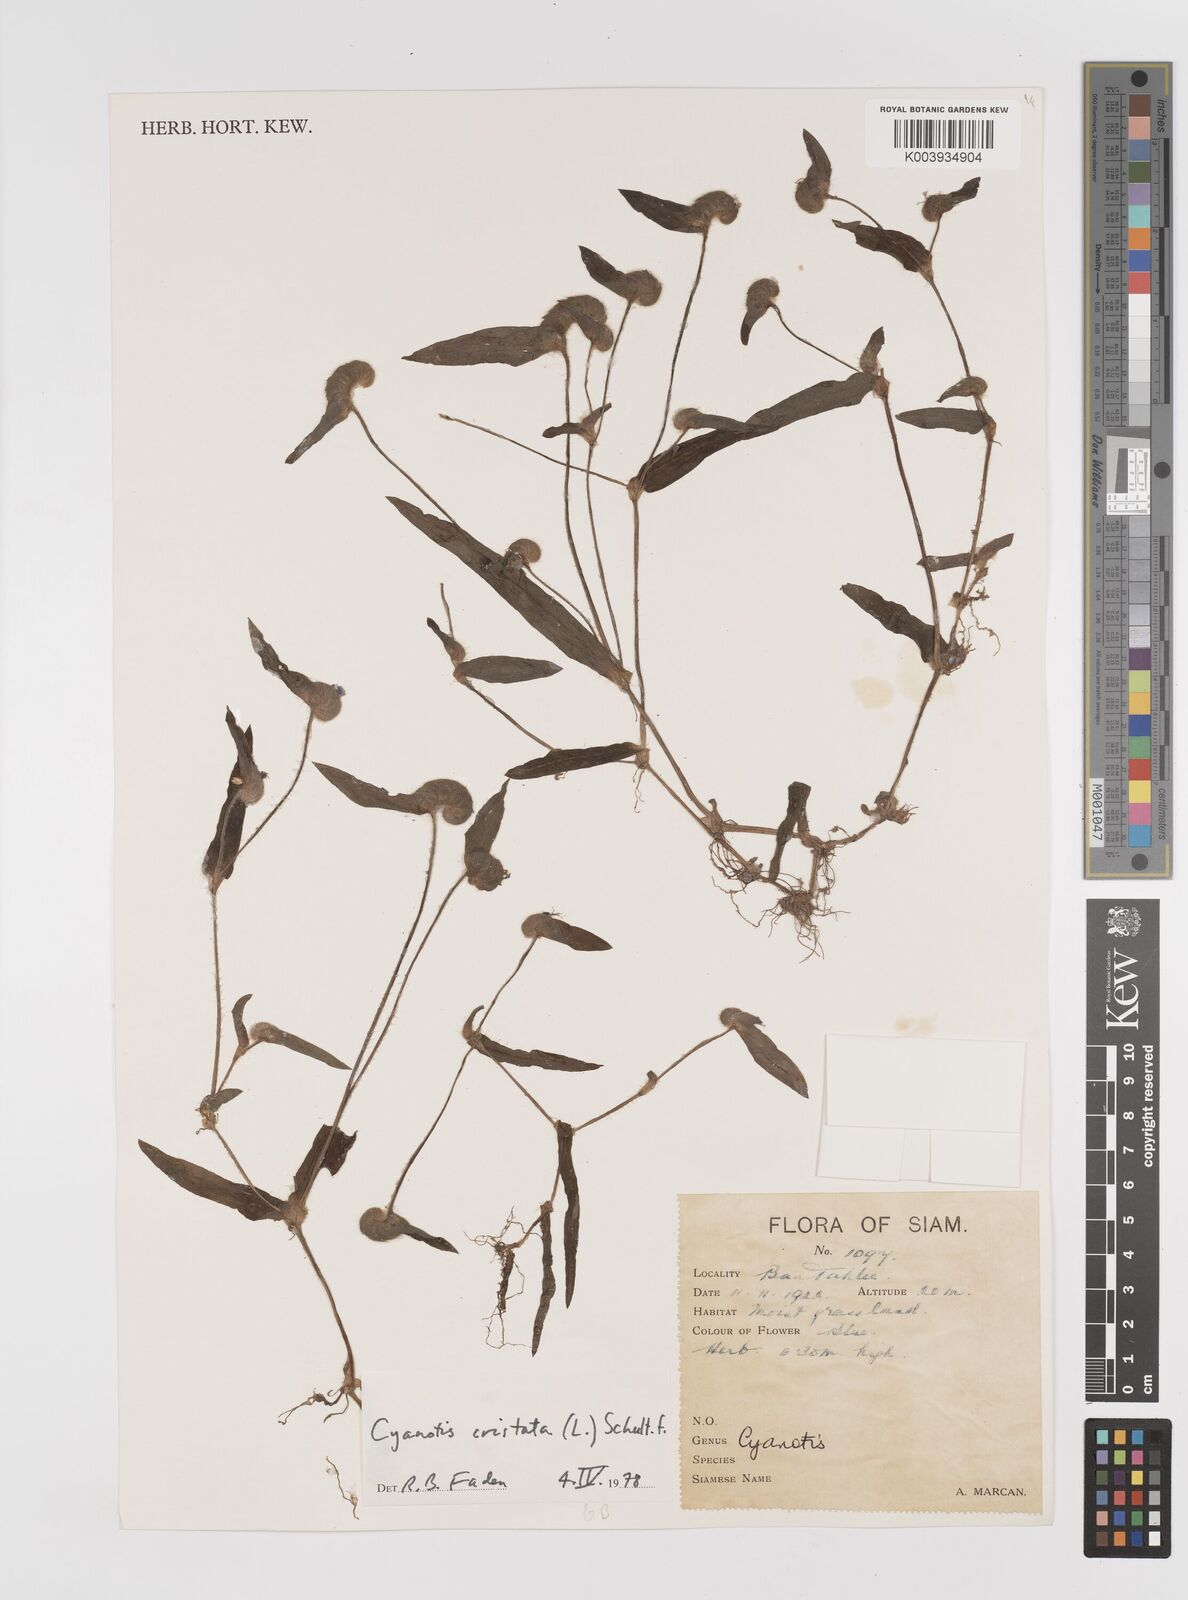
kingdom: Plantae
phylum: Tracheophyta
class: Liliopsida
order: Commelinales
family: Commelinaceae
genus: Cyanotis
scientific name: Cyanotis cristata
